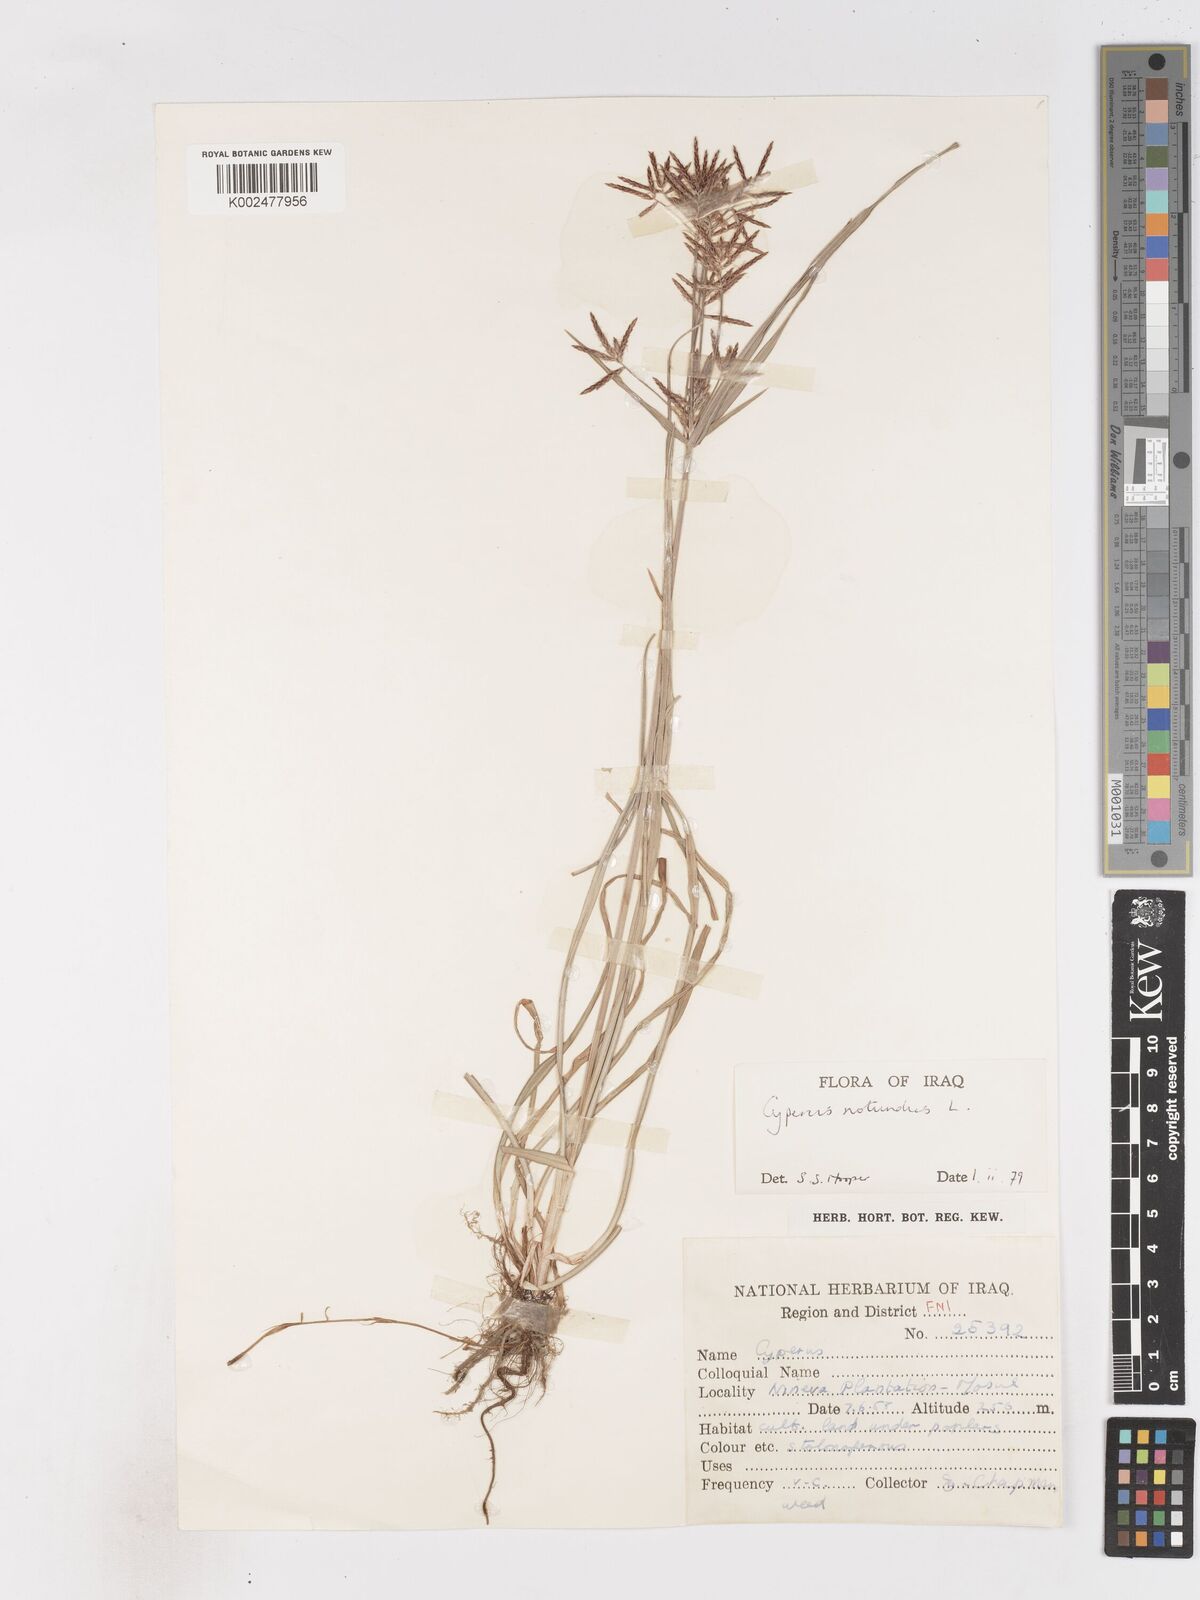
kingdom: Plantae
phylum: Tracheophyta
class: Liliopsida
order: Poales
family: Cyperaceae
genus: Cyperus
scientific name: Cyperus rotundus
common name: Nutgrass
